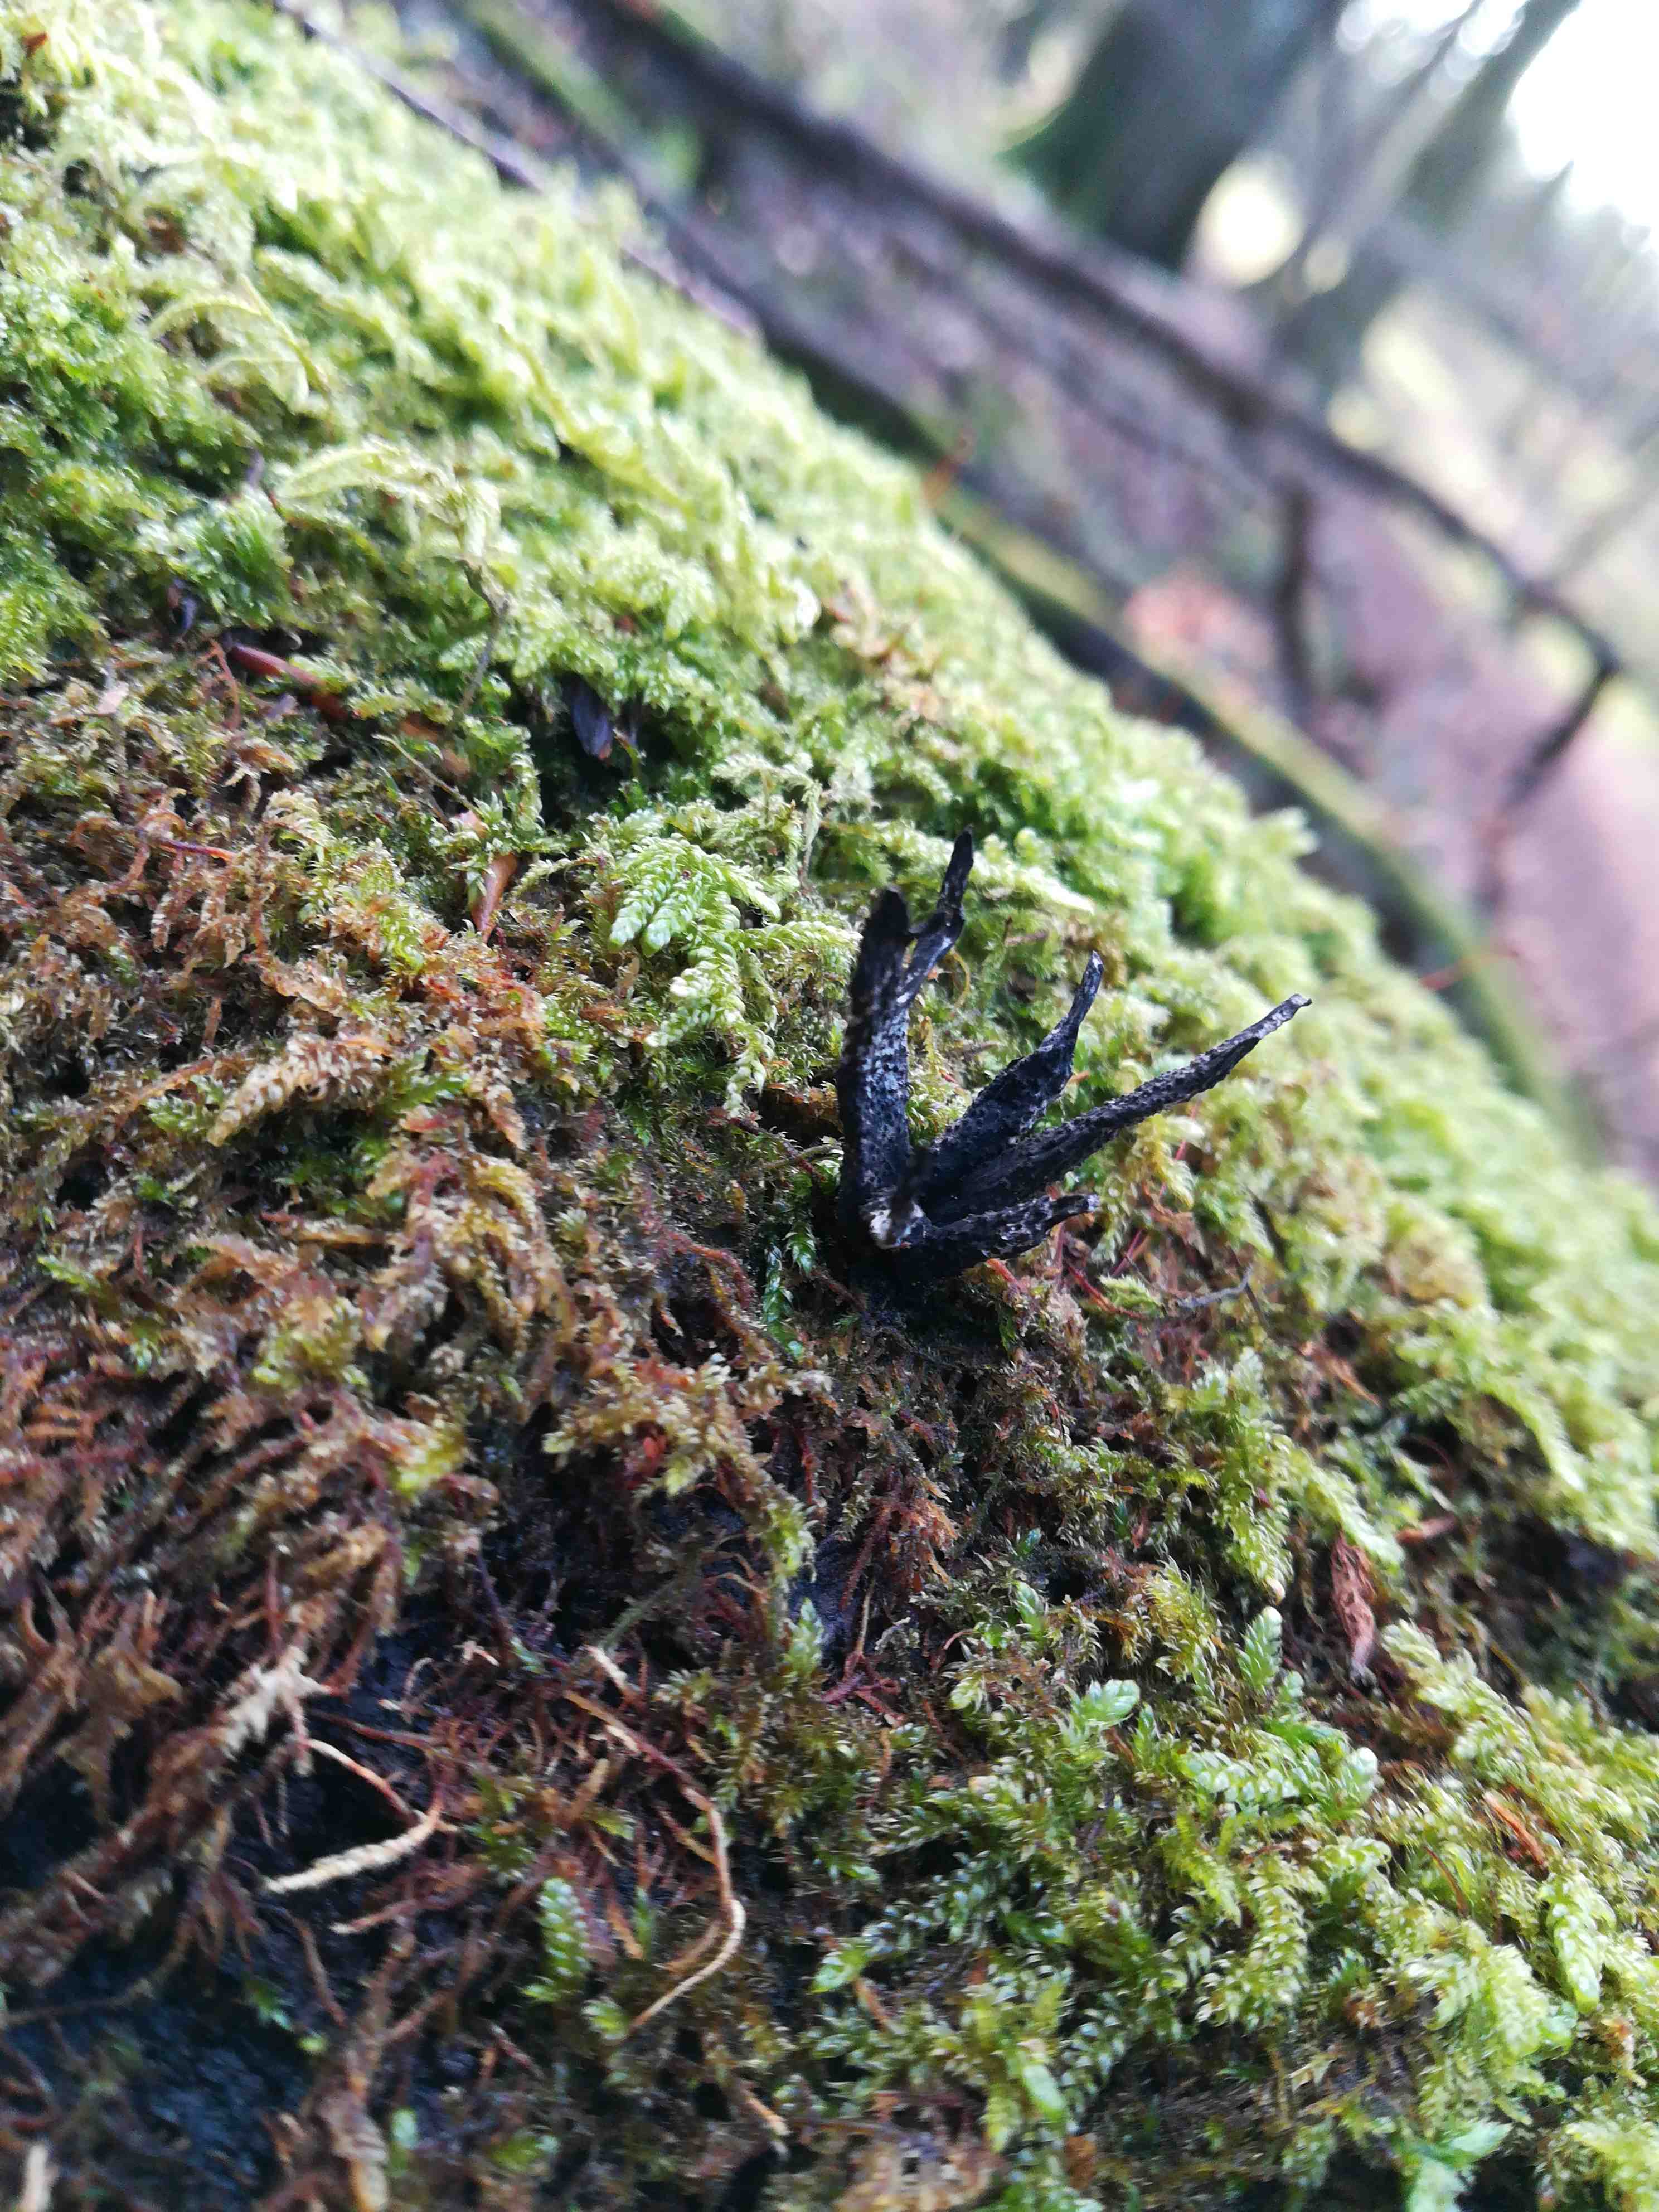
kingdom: Fungi
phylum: Ascomycota
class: Sordariomycetes
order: Xylariales
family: Xylariaceae
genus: Xylaria
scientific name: Xylaria hypoxylon
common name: grenet stødsvamp
